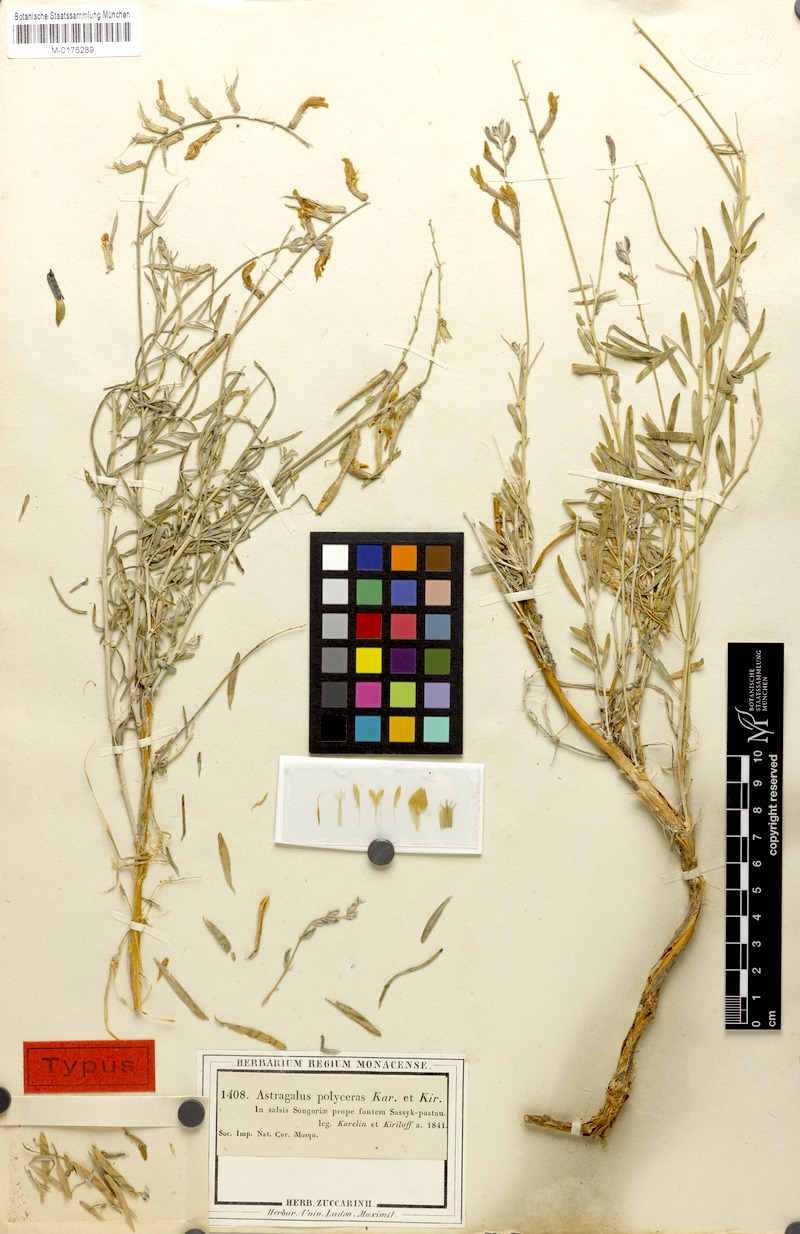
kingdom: Plantae
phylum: Tracheophyta
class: Magnoliopsida
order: Fabales
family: Fabaceae
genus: Astragalus
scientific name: Astragalus polyceras
